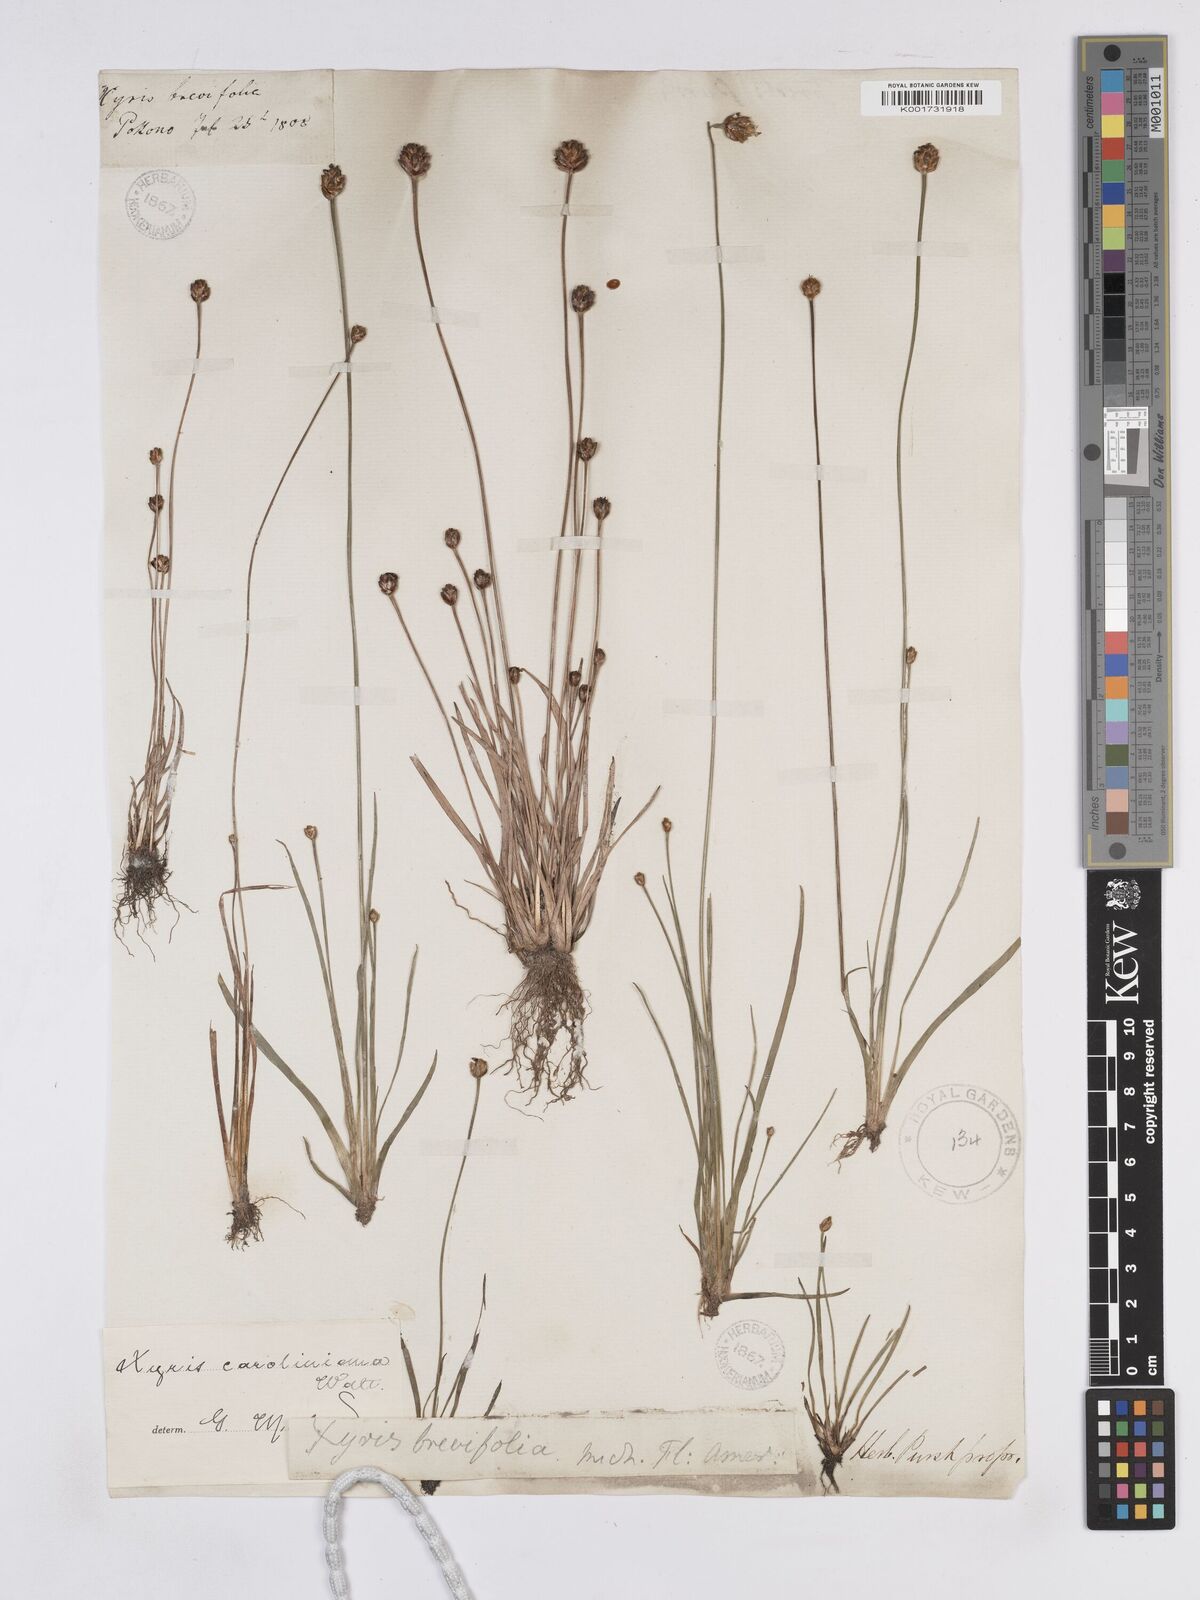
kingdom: Plantae
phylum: Tracheophyta
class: Liliopsida
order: Poales
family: Xyridaceae
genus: Xyris
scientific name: Xyris caroliniana
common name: Carolina yellow-eyed-grass
